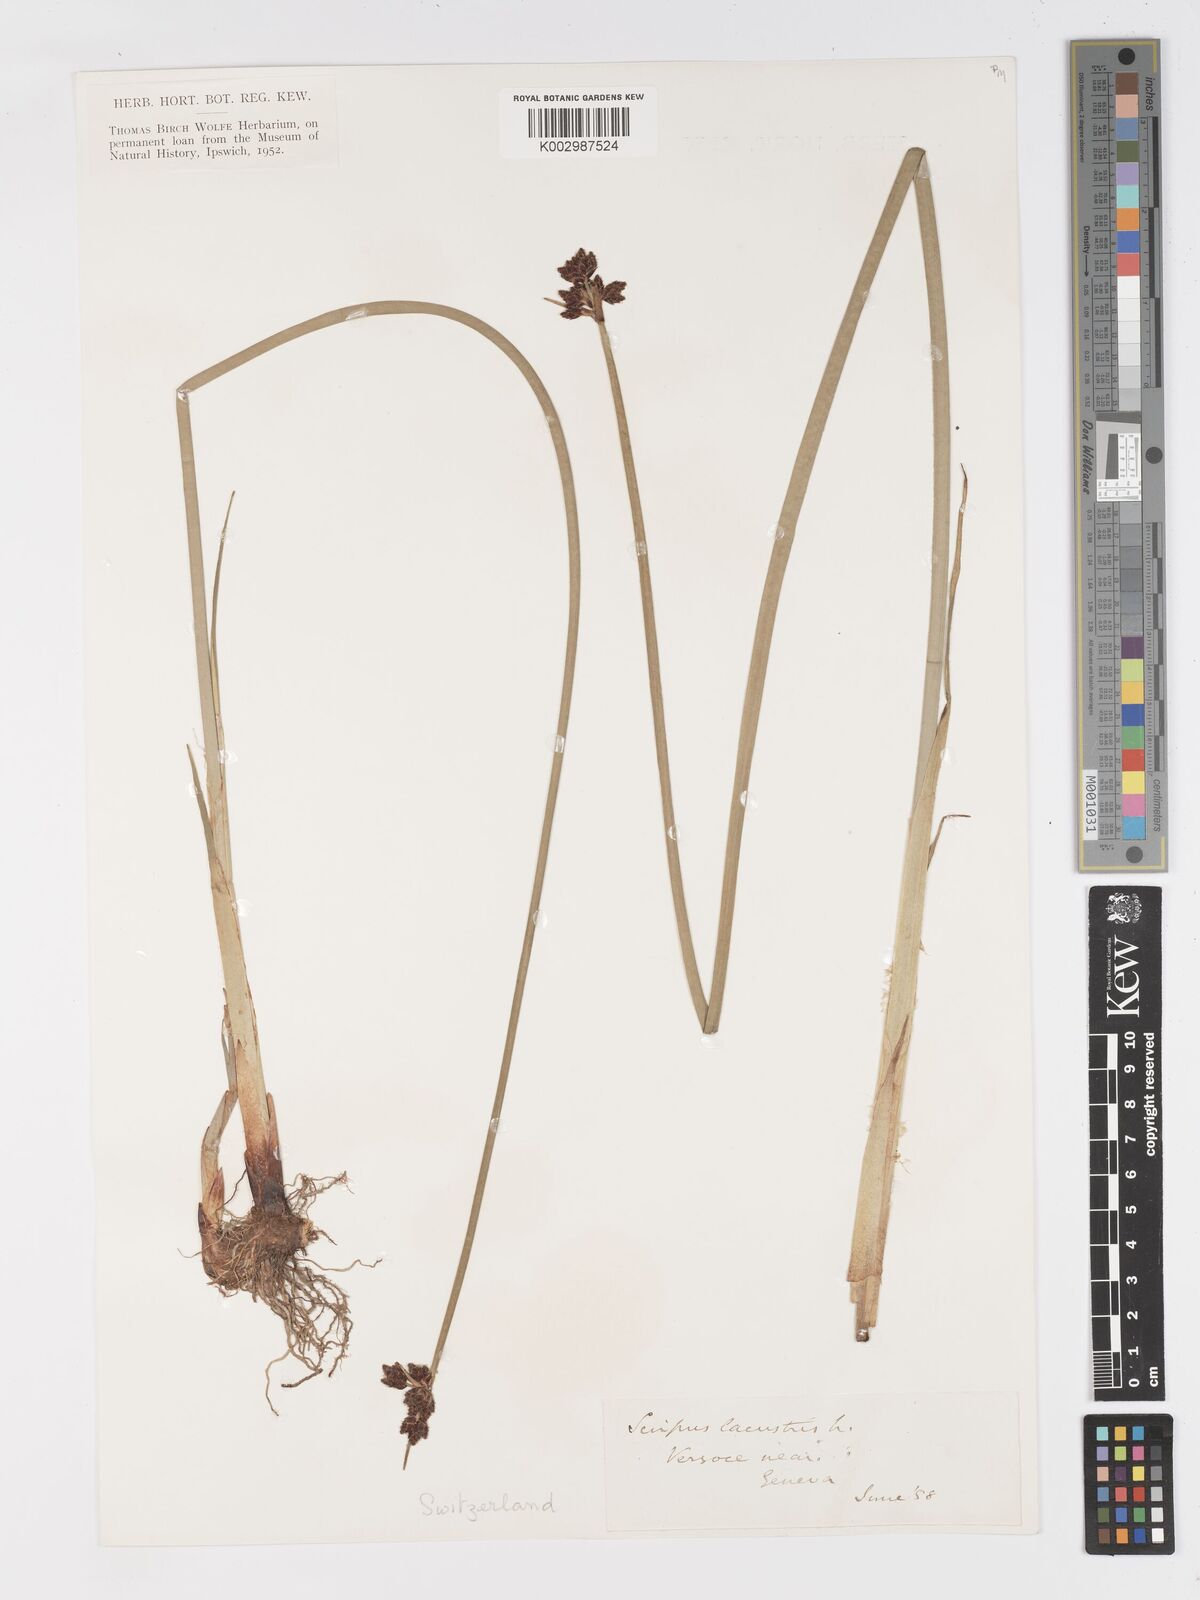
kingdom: Plantae
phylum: Tracheophyta
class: Liliopsida
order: Poales
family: Cyperaceae
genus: Schoenoplectus
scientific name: Schoenoplectus lacustris
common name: Common club-rush
